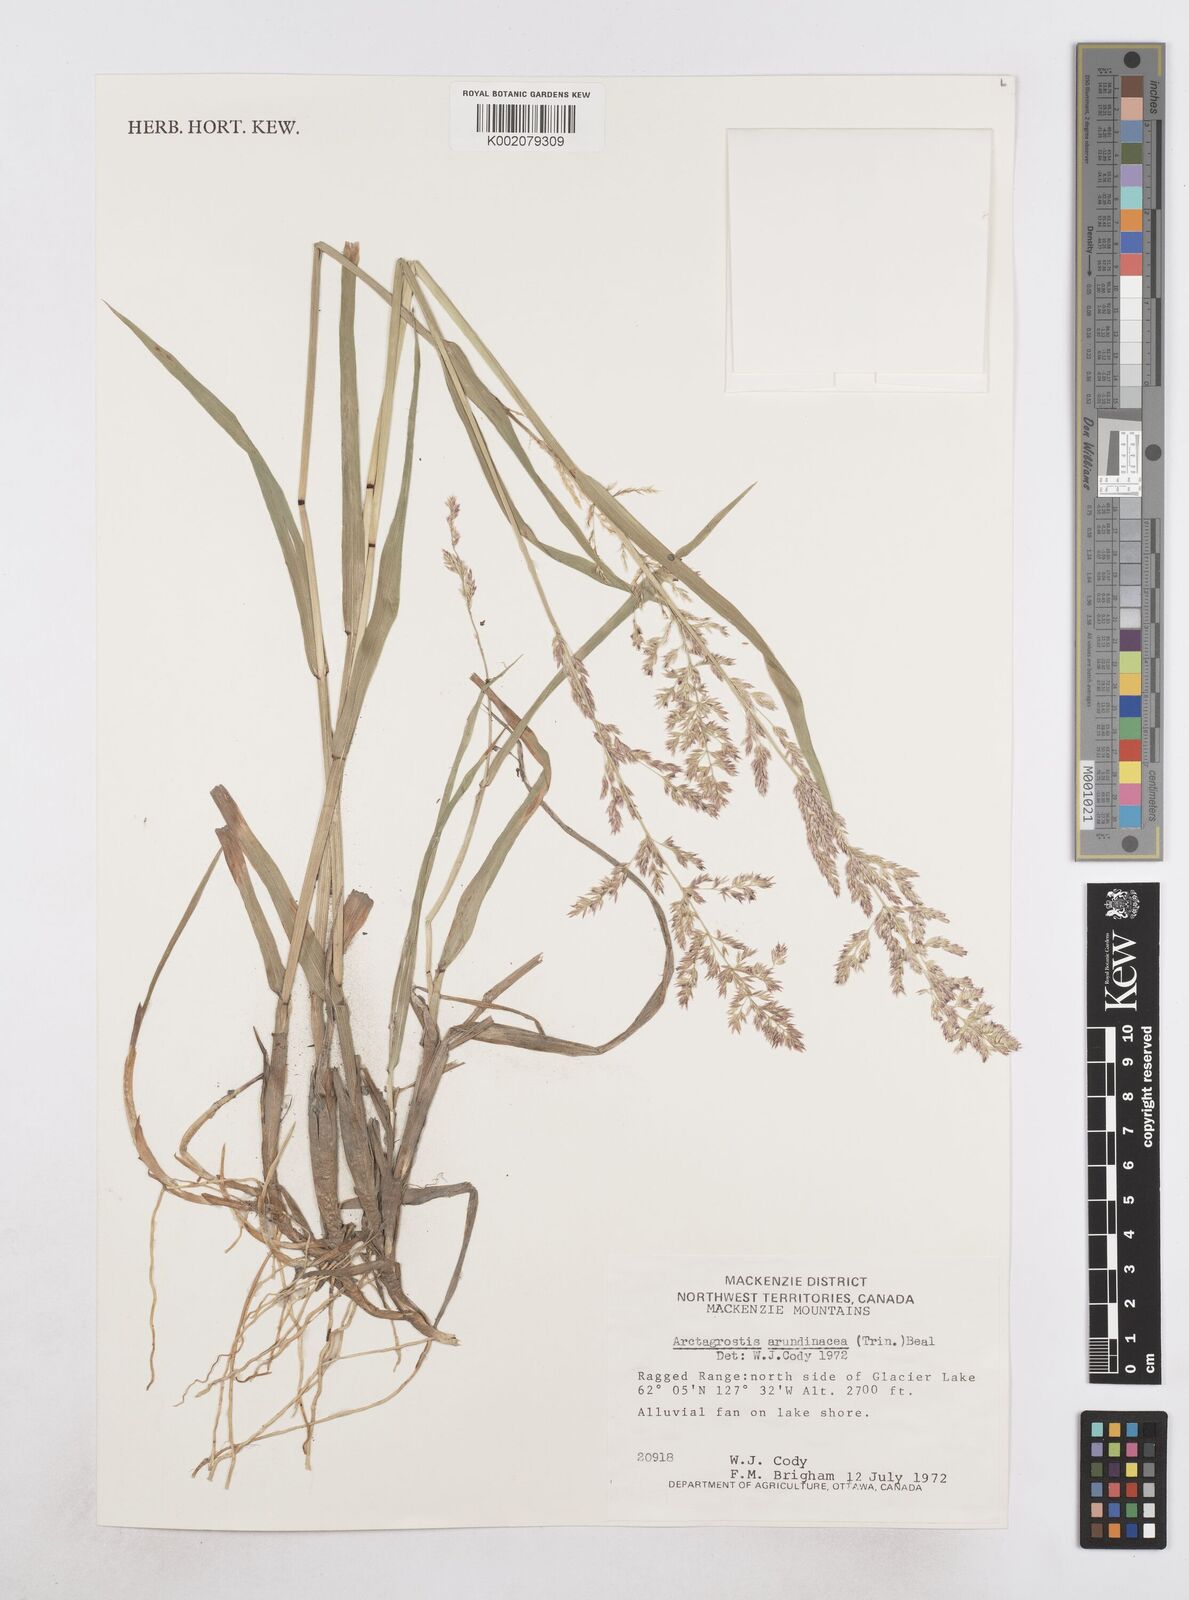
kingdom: Plantae
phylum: Tracheophyta
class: Liliopsida
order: Poales
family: Poaceae
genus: Arctagrostis
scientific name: Arctagrostis arundinacea
